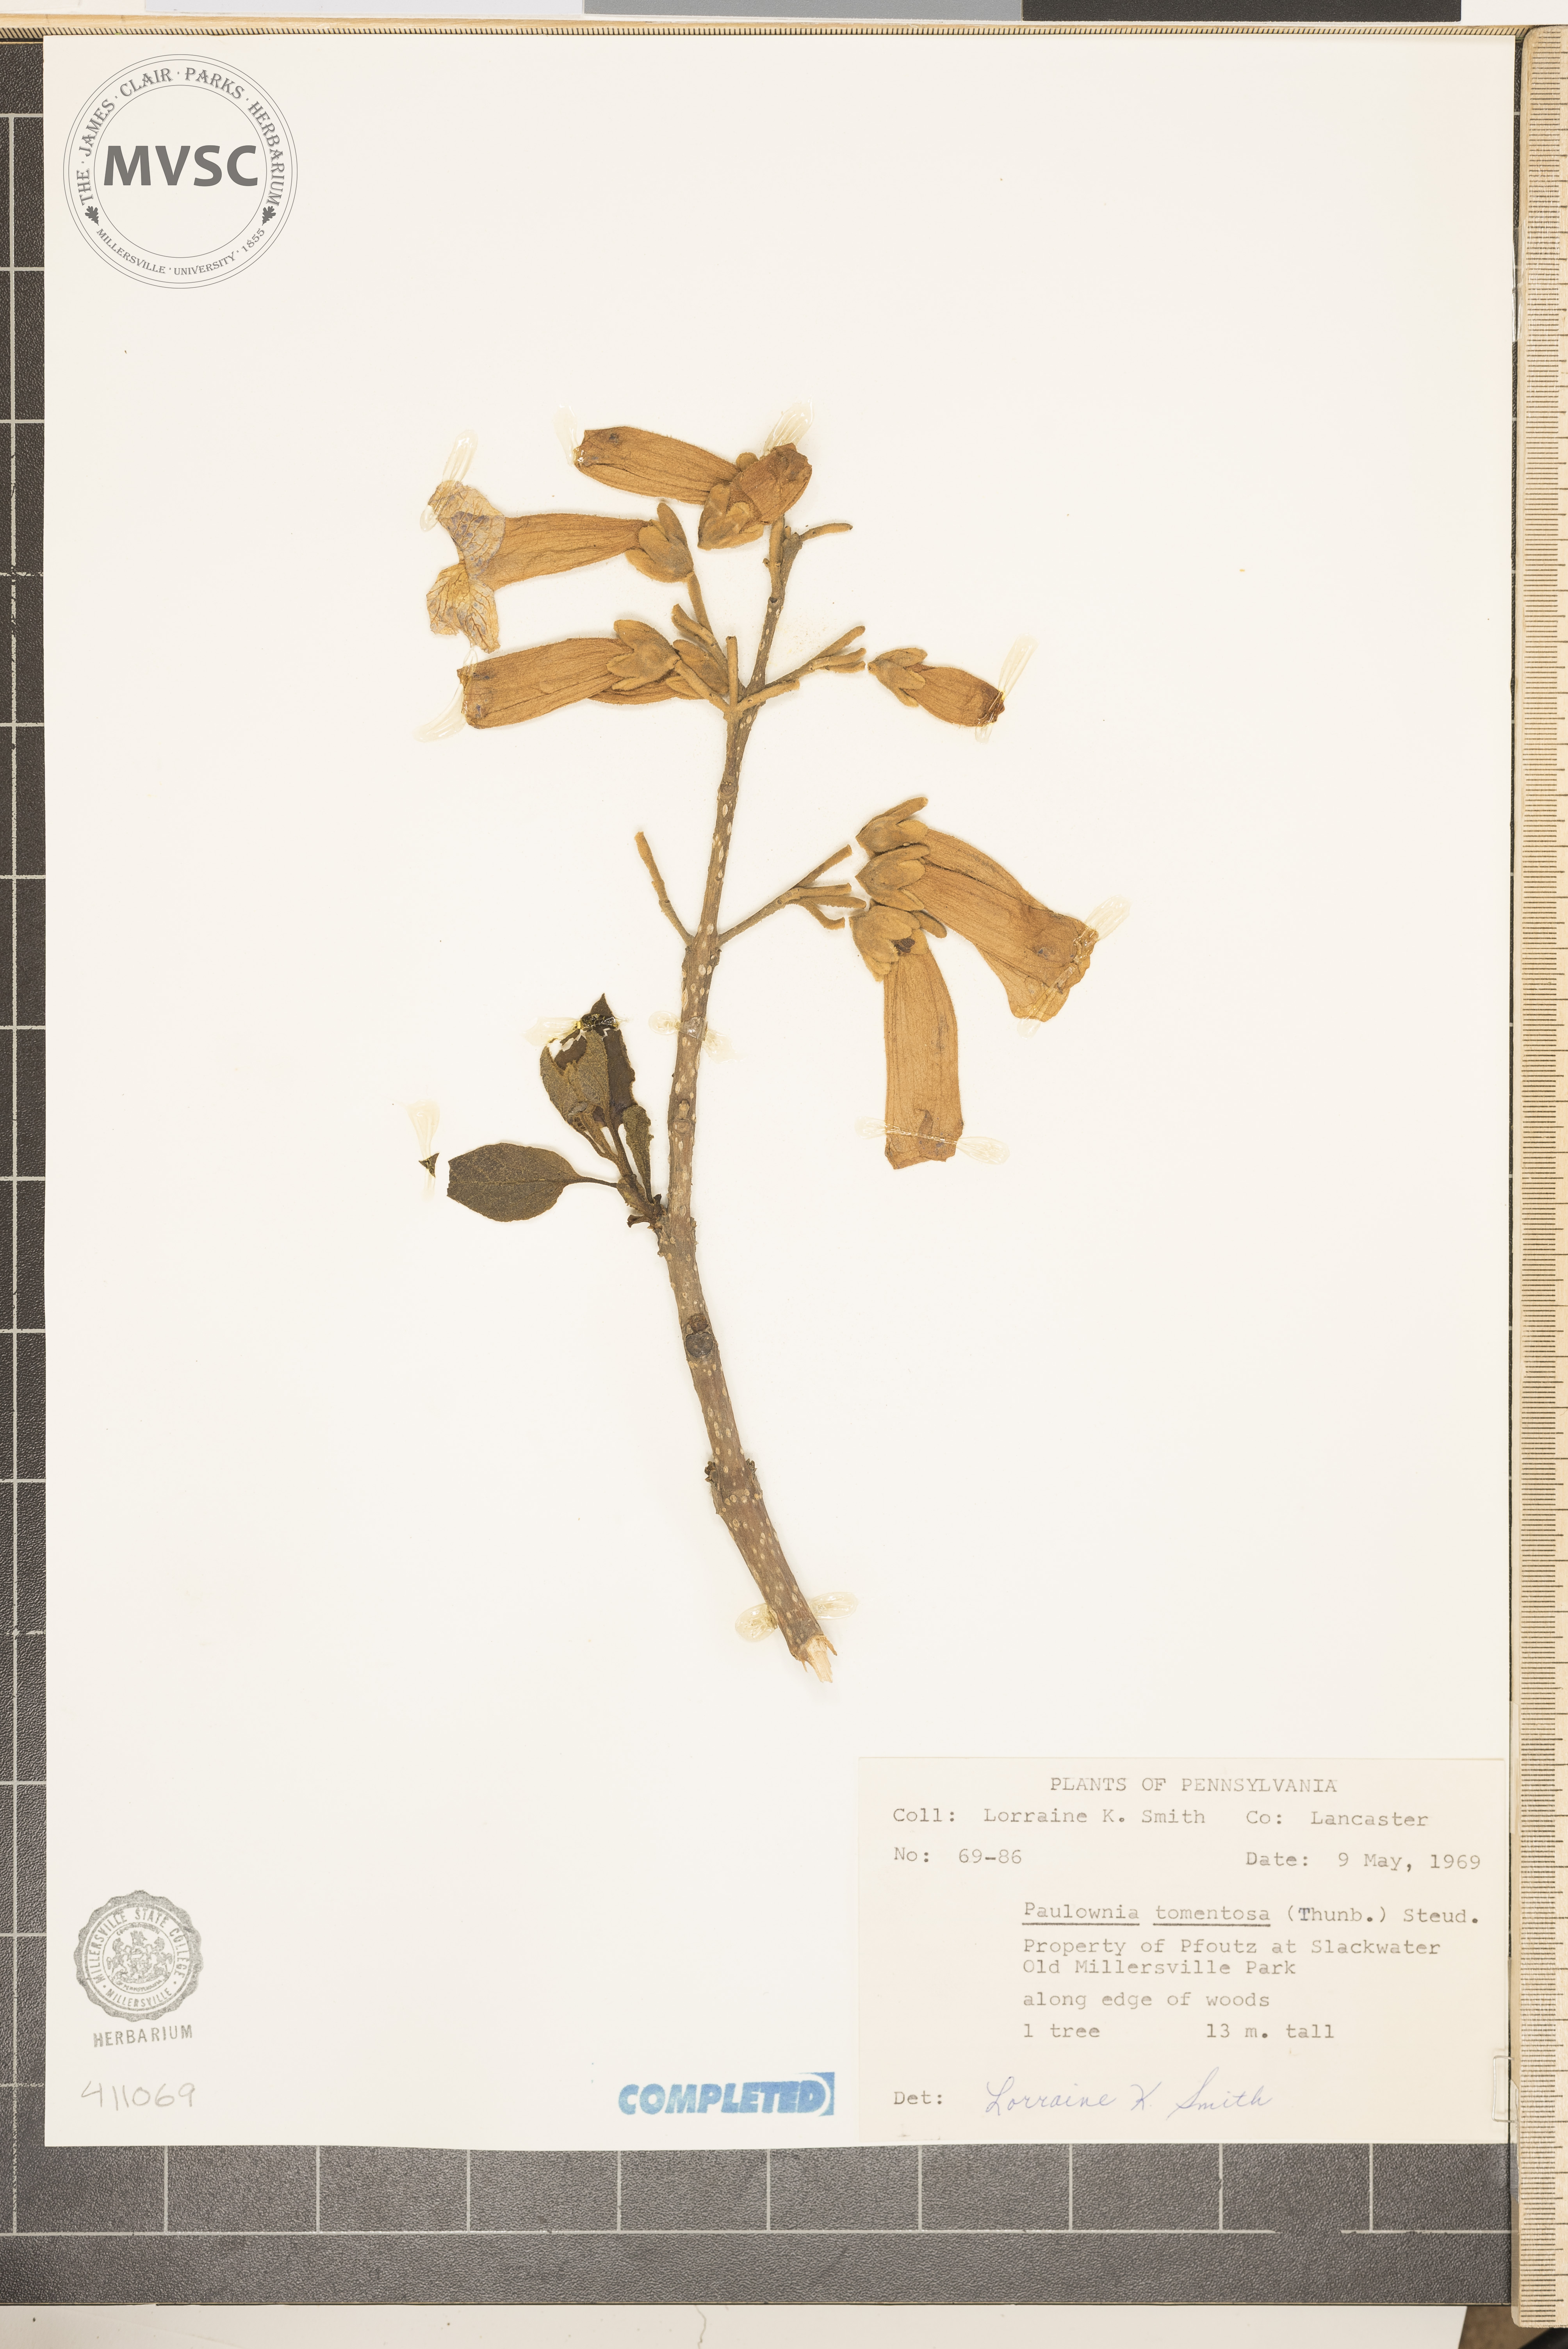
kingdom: Plantae
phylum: Tracheophyta
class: Magnoliopsida
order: Lamiales
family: Paulowniaceae
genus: Paulownia
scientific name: Paulownia tomentosa
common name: Foxglove-tree
